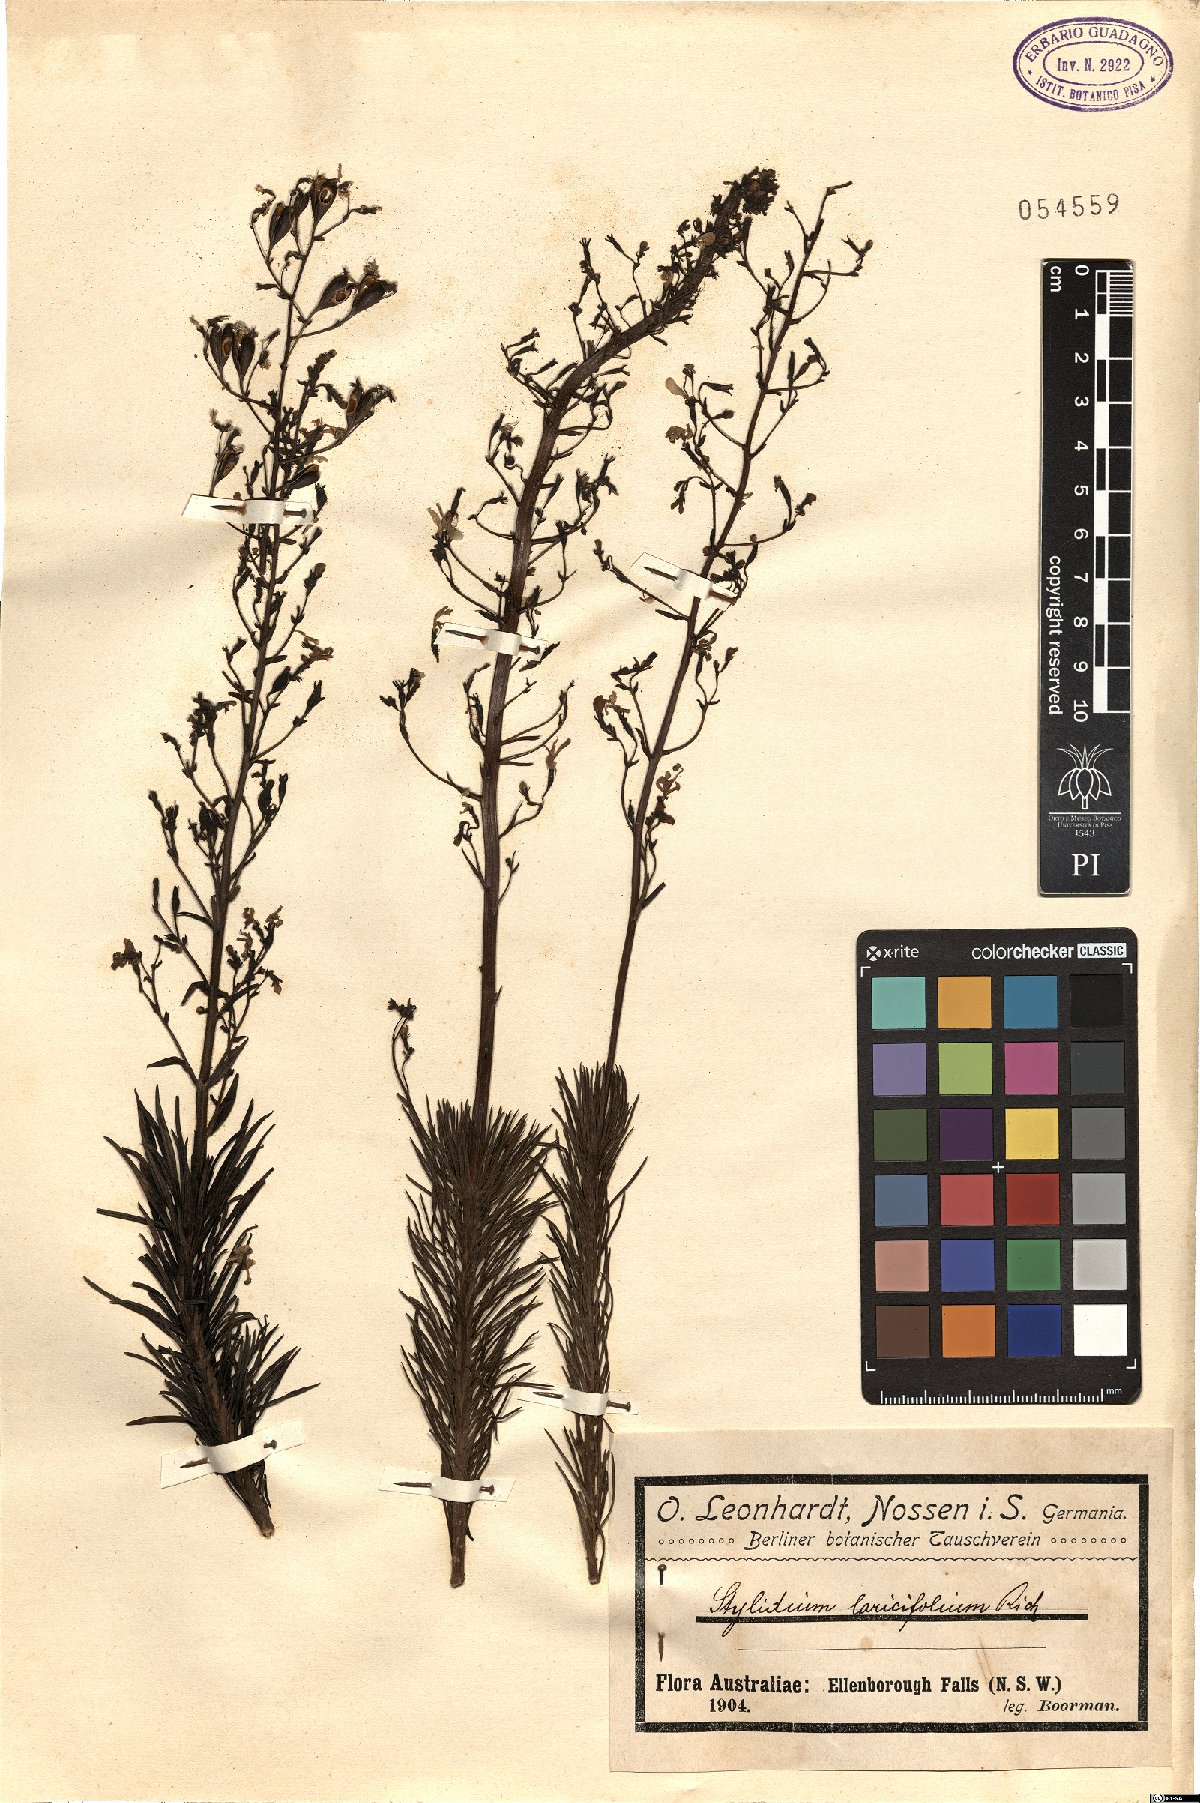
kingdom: Plantae
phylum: Tracheophyta
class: Magnoliopsida
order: Asterales
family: Stylidiaceae
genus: Stylidium
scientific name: Stylidium laricifolium
